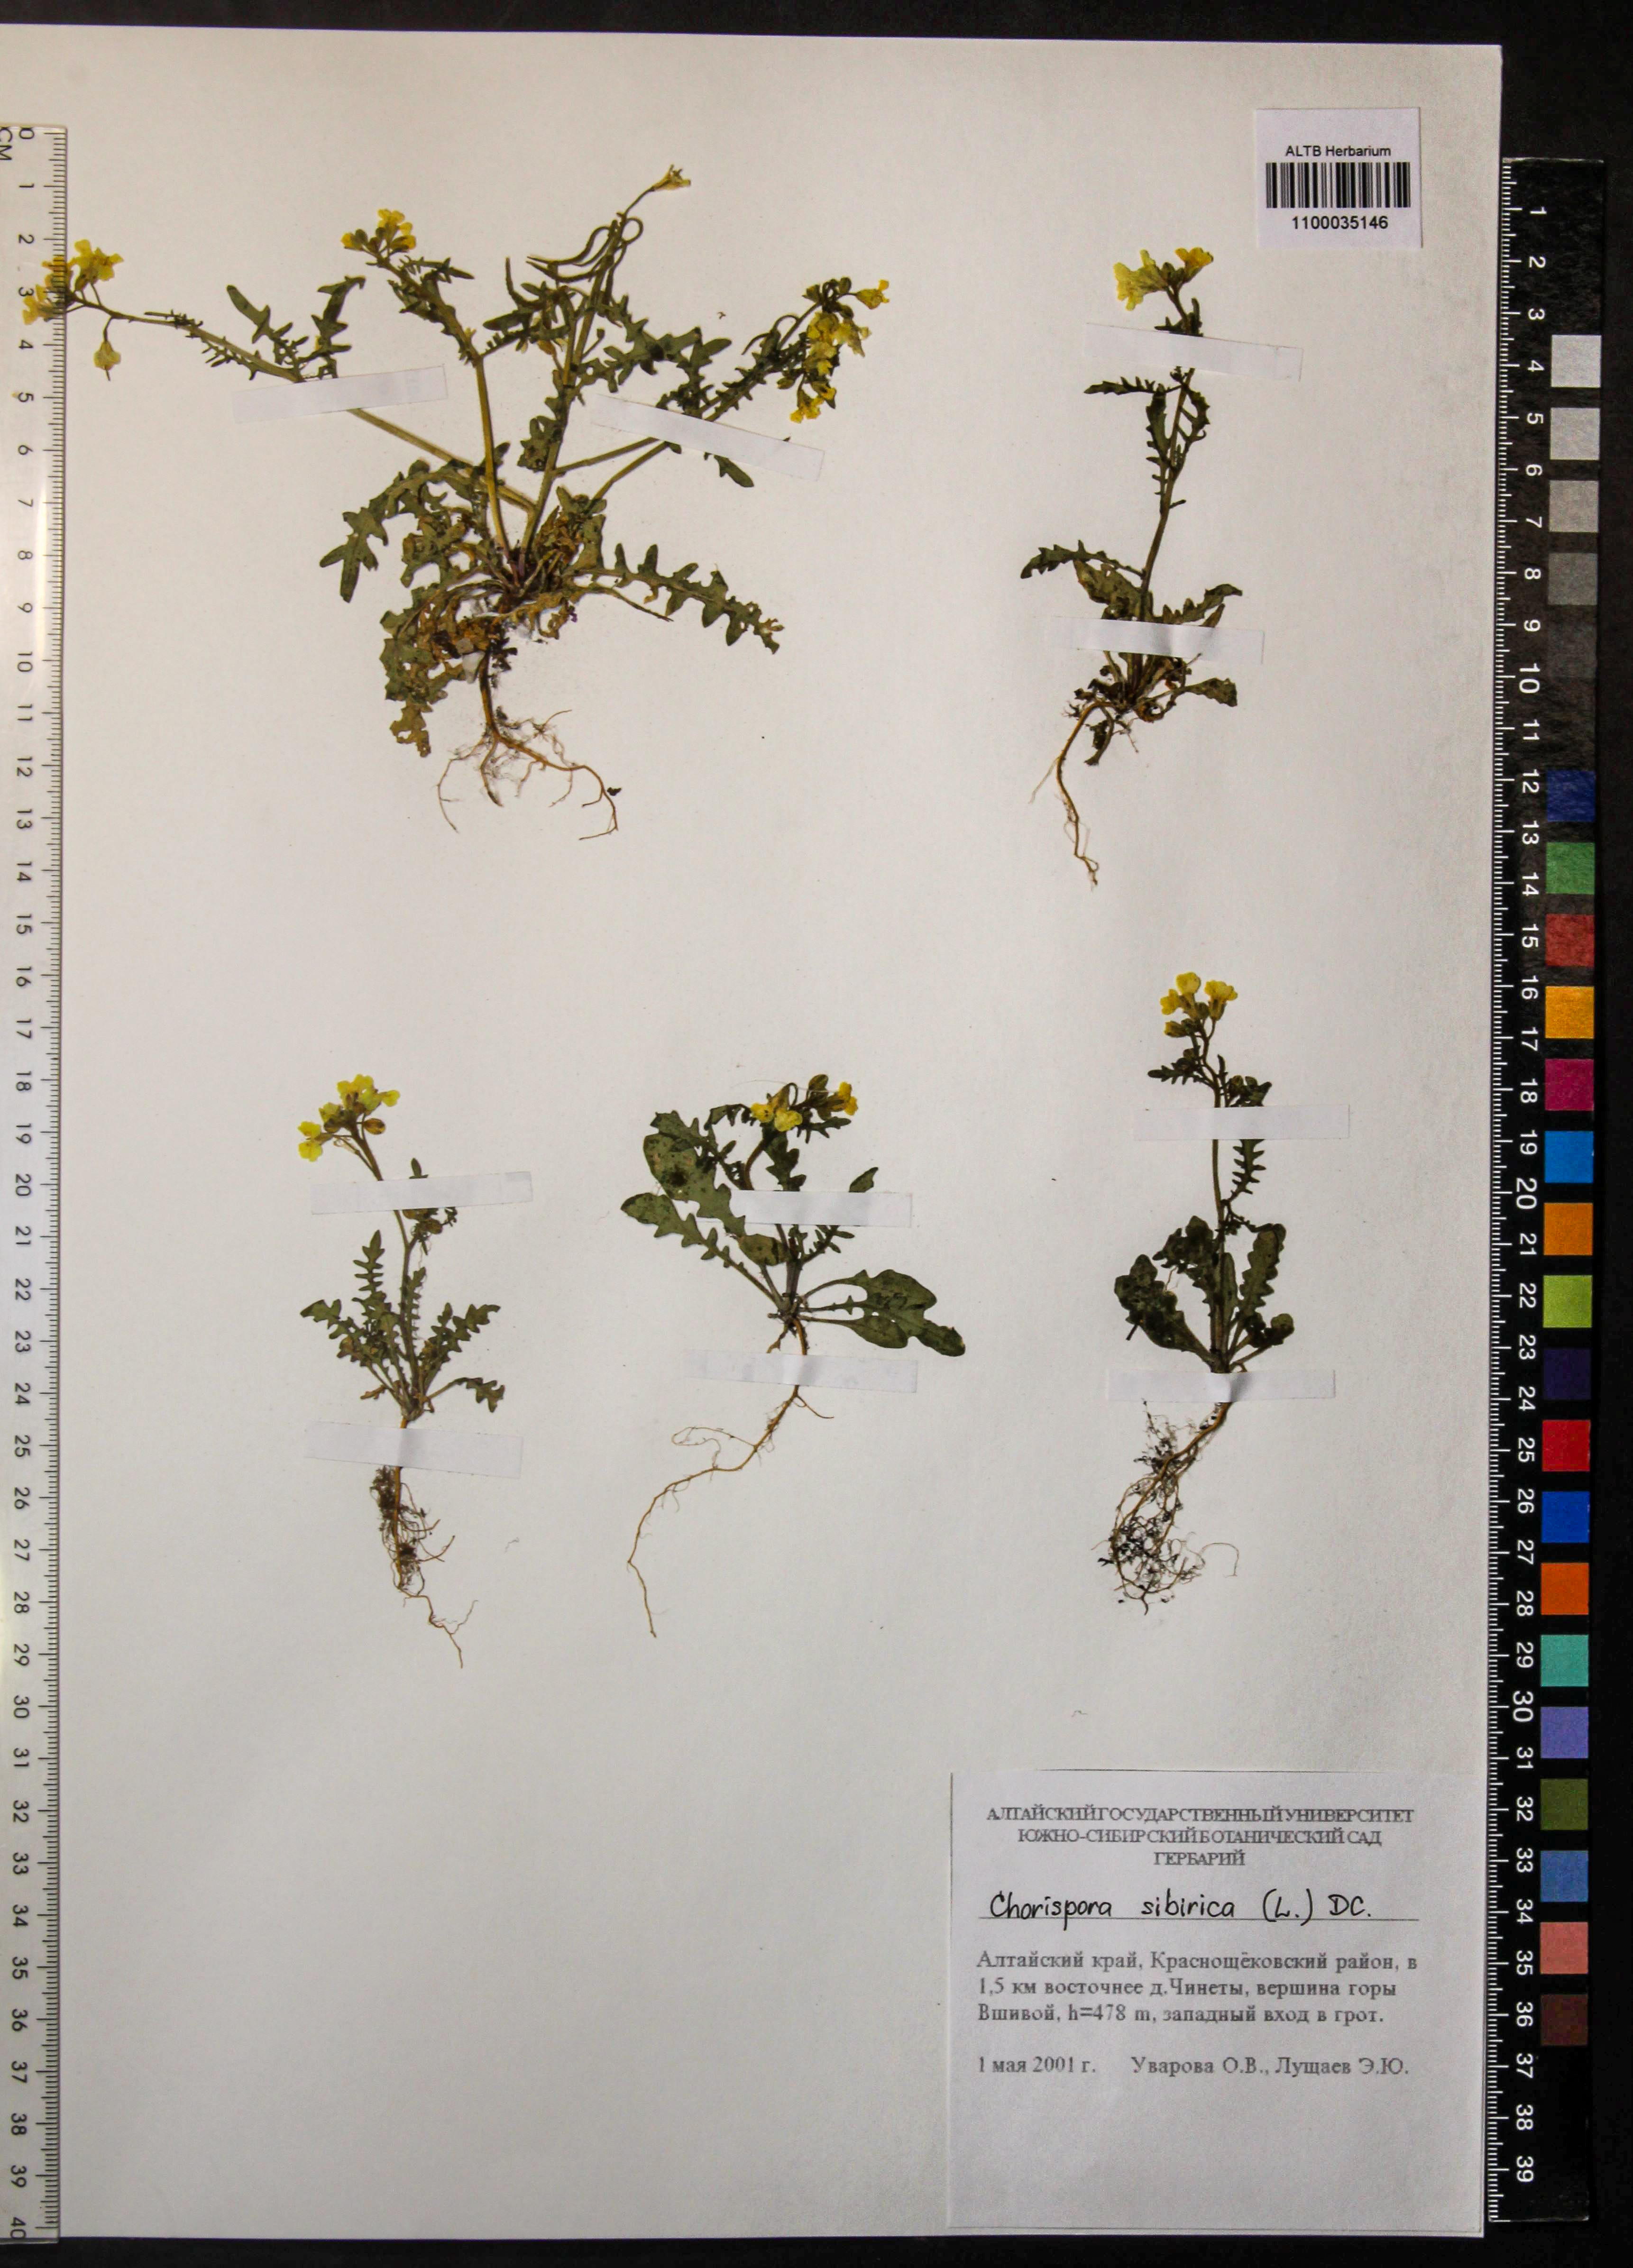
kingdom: Plantae
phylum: Tracheophyta
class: Magnoliopsida
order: Brassicales
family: Brassicaceae
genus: Chorispora
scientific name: Chorispora sibirica
